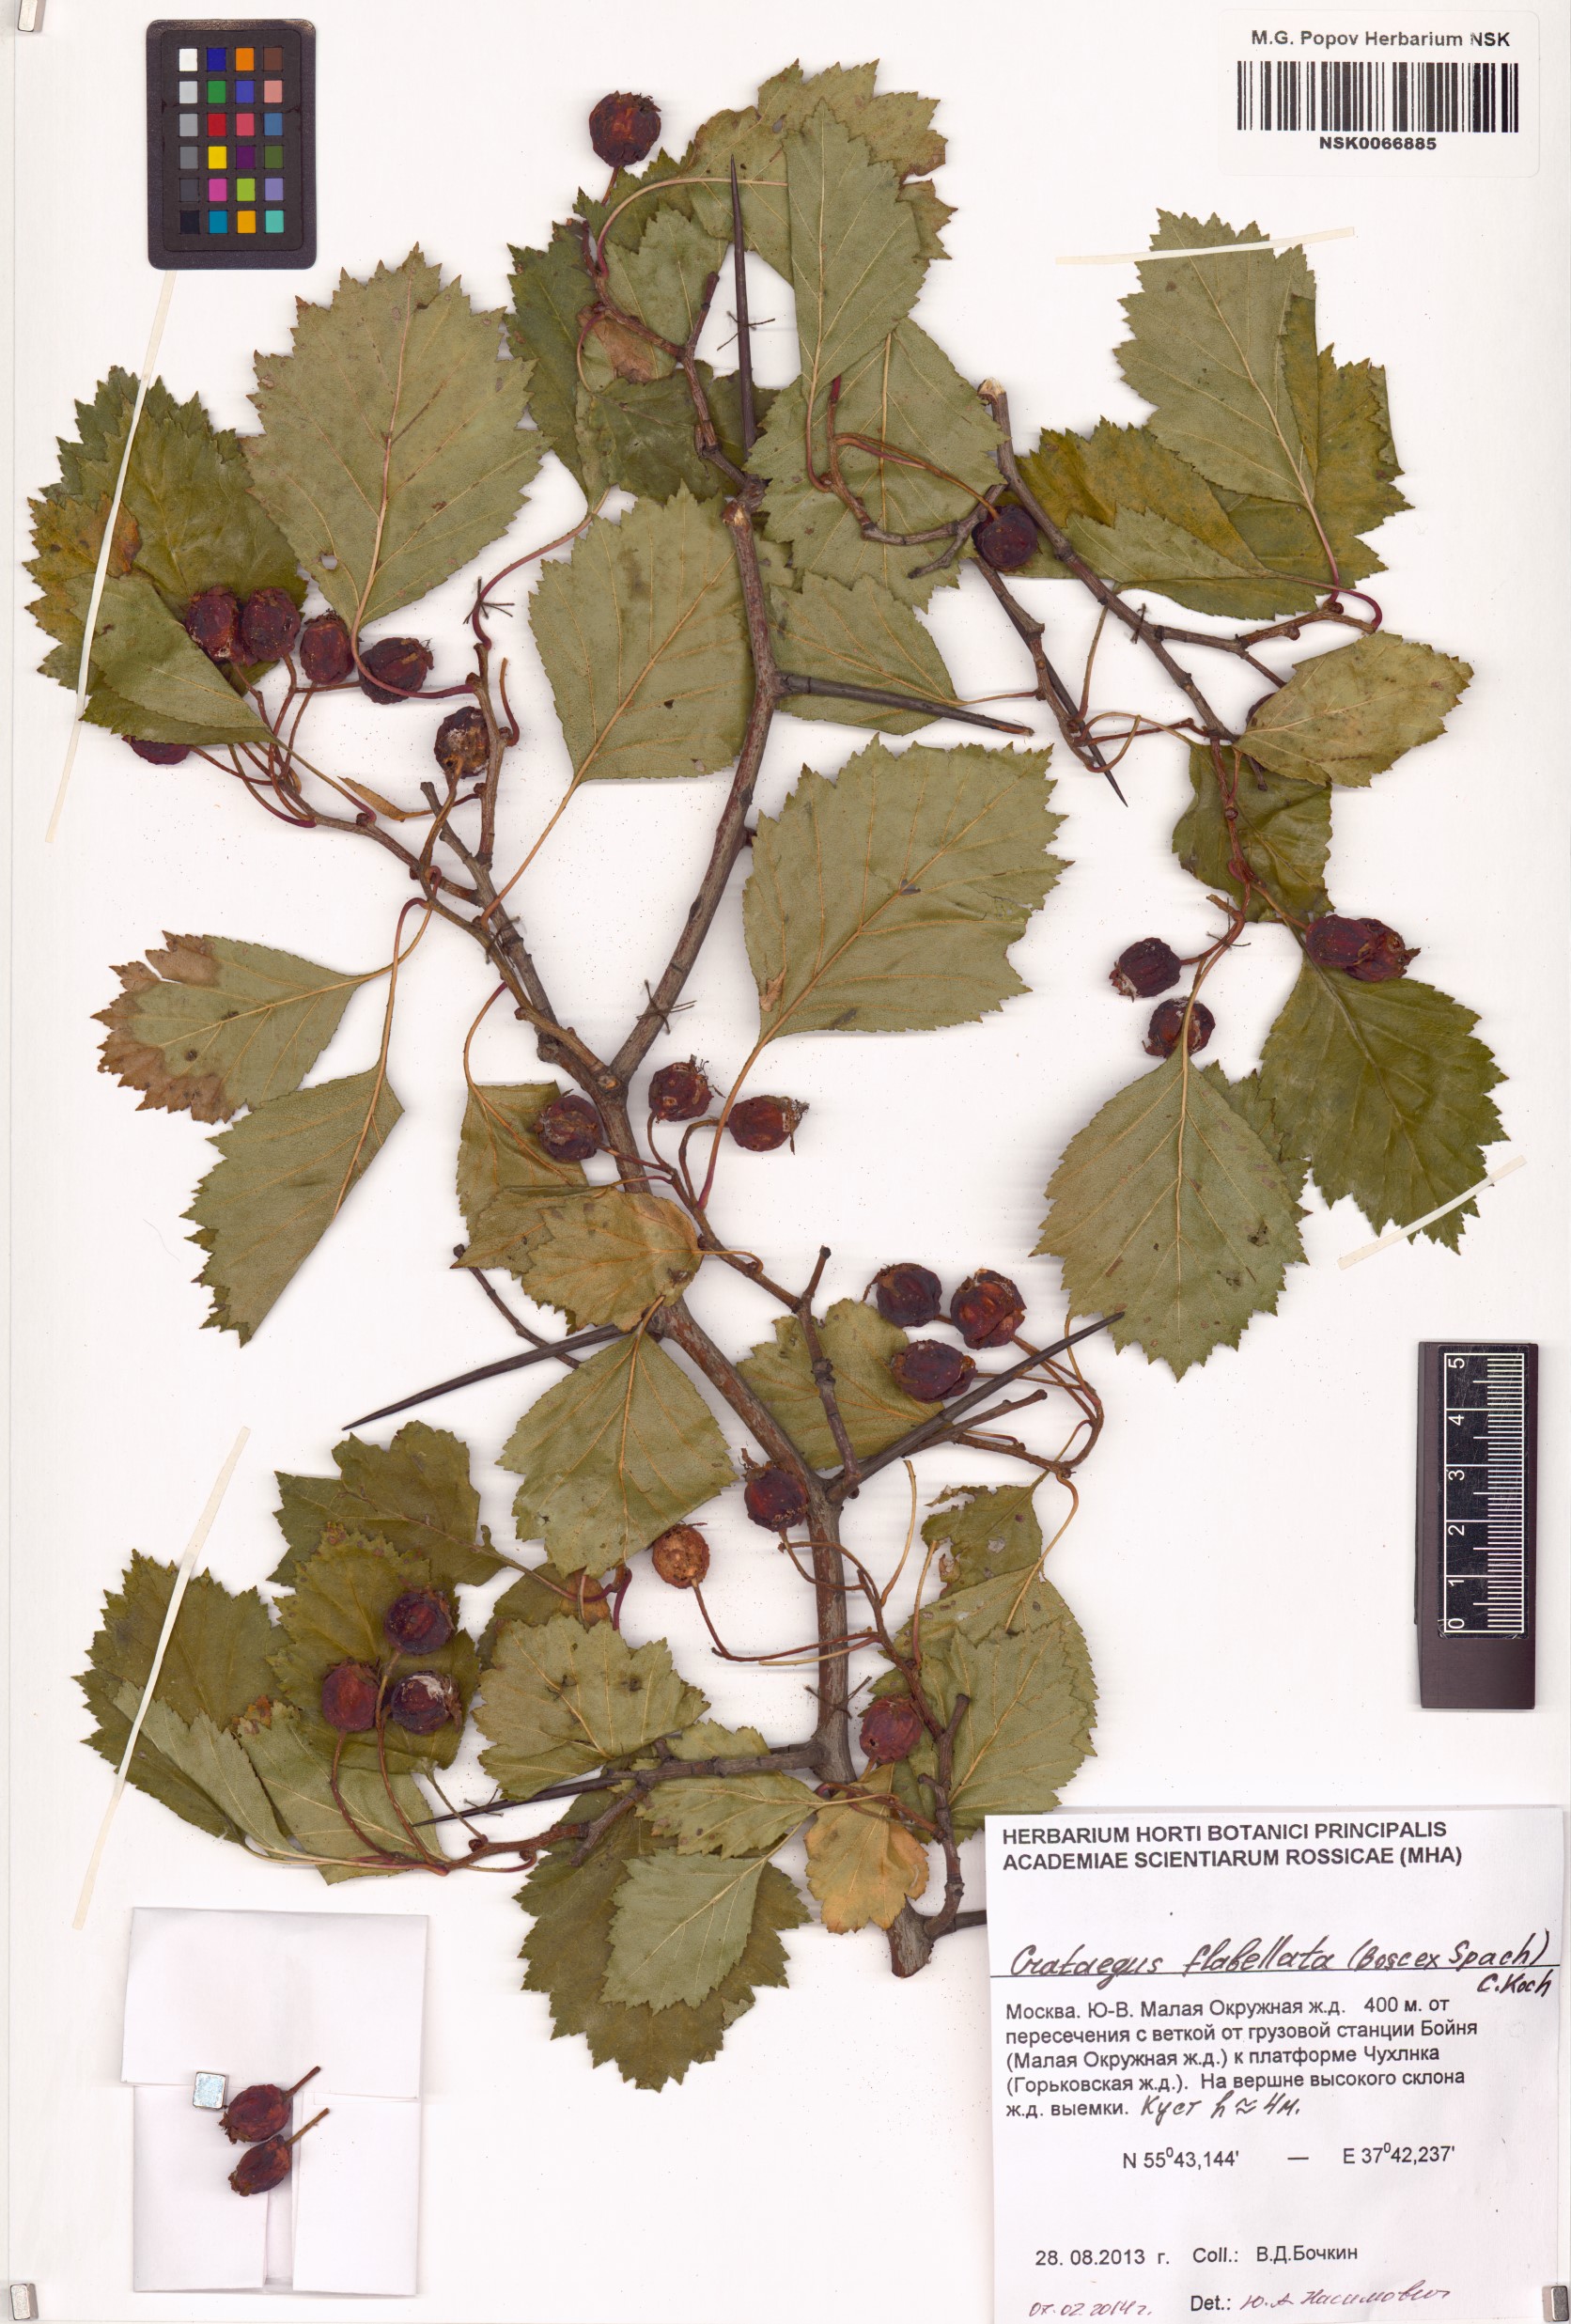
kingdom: Plantae
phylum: Tracheophyta
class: Magnoliopsida
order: Rosales
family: Rosaceae
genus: Crataegus
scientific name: Crataegus flabellata
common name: Bosc's hawthorn
